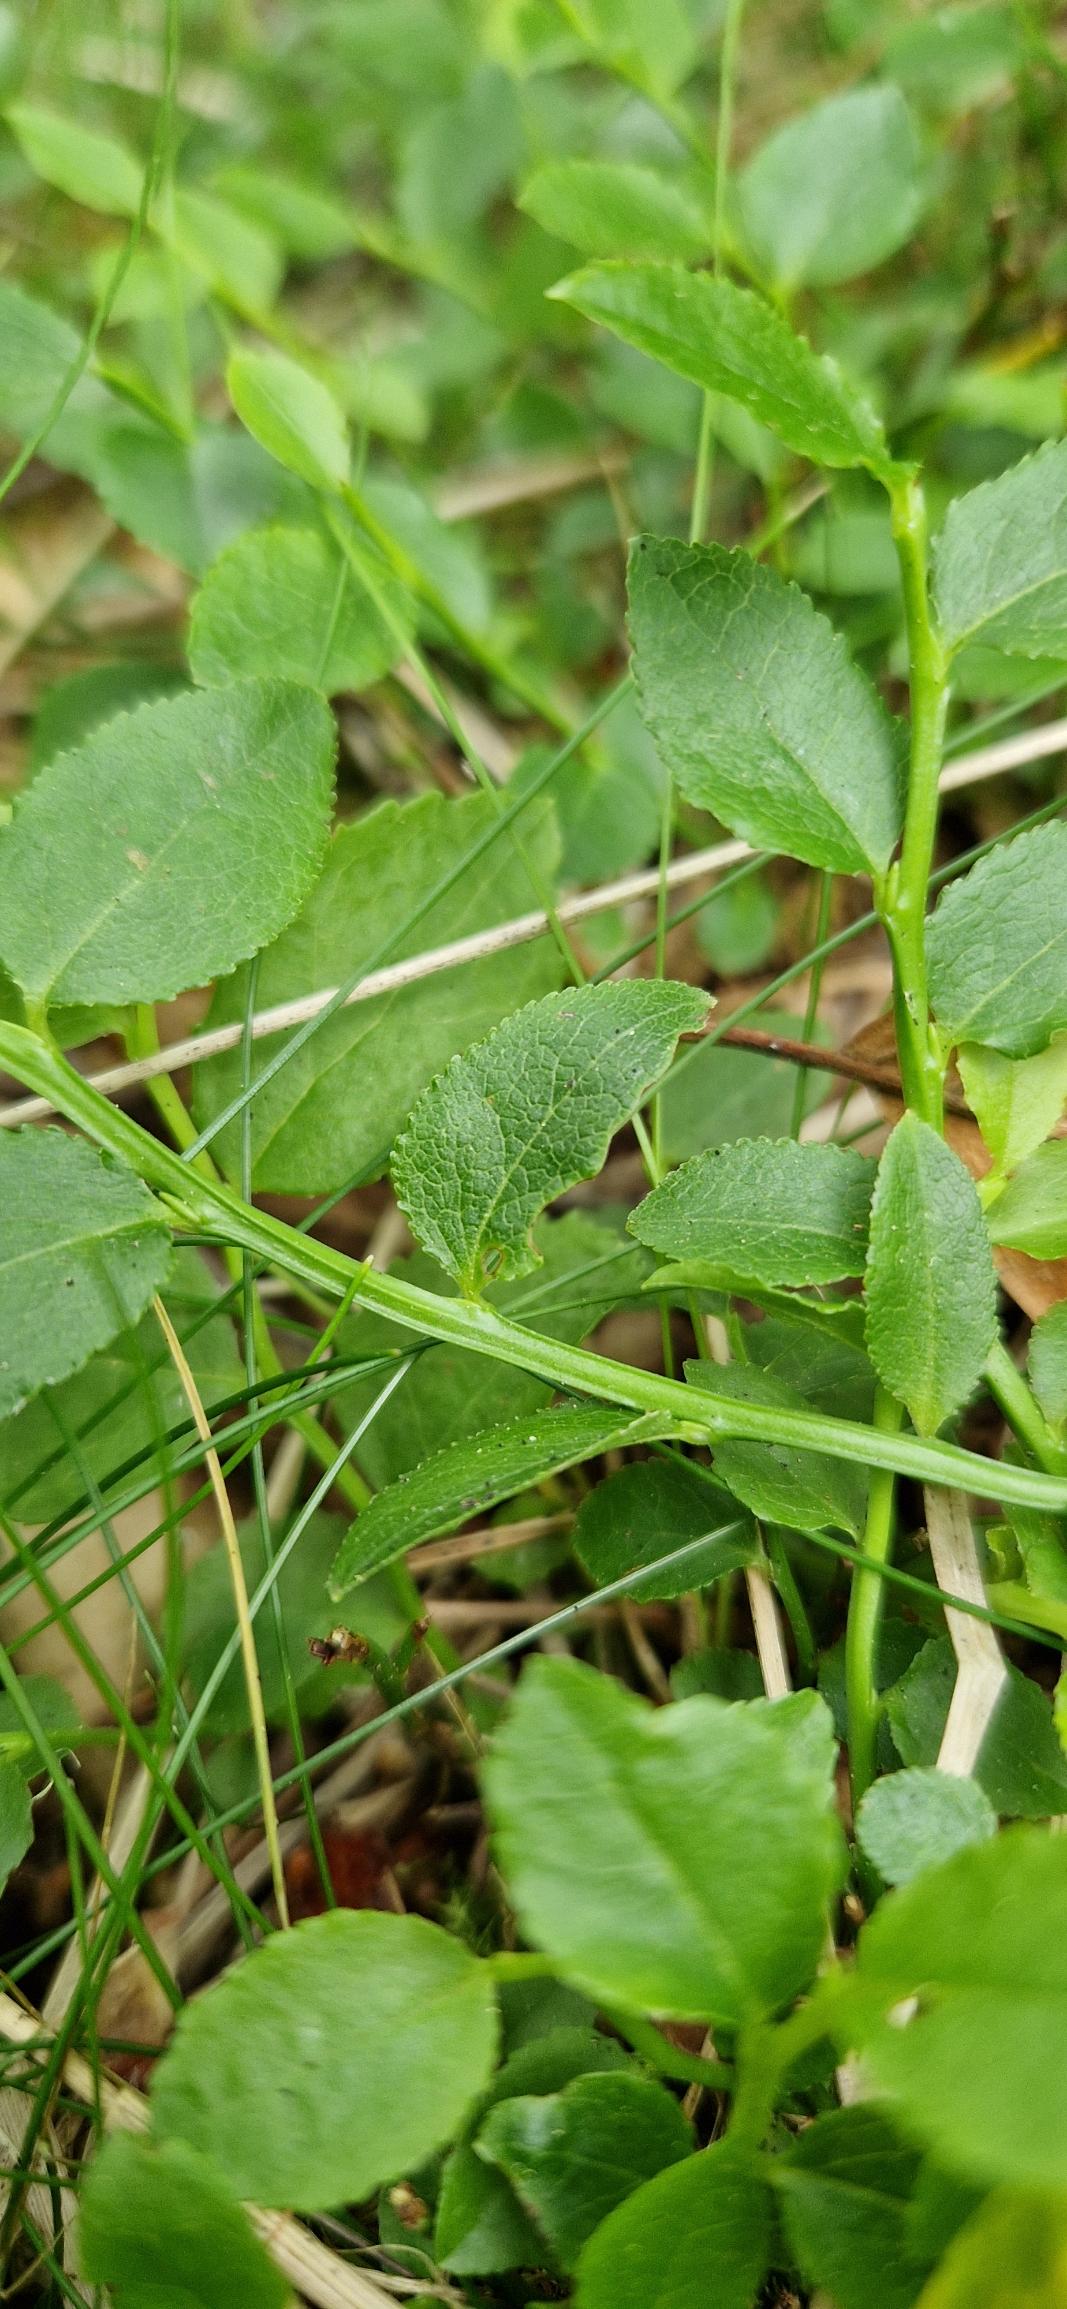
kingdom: Plantae
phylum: Tracheophyta
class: Magnoliopsida
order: Ericales
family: Ericaceae
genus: Vaccinium
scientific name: Vaccinium myrtillus
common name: Blåbær
